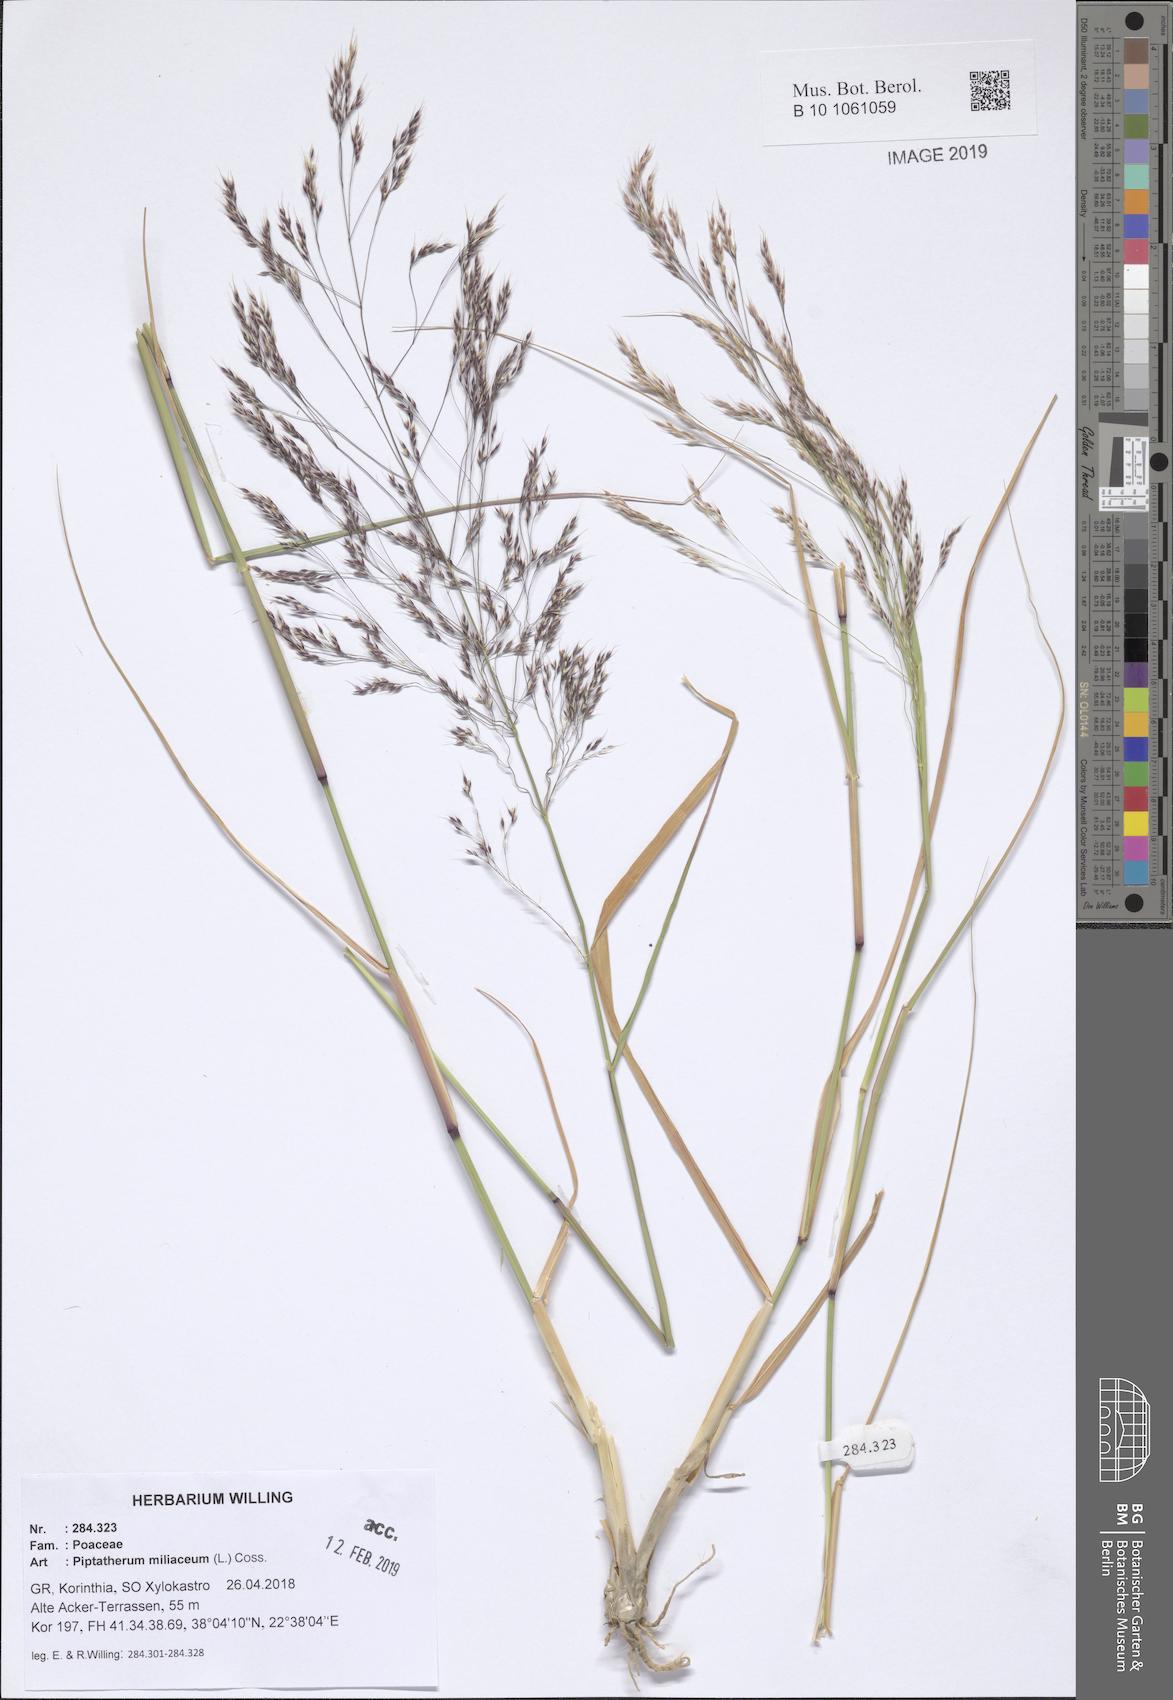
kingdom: Plantae
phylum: Tracheophyta
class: Liliopsida
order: Poales
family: Poaceae
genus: Oloptum
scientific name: Oloptum miliaceum
